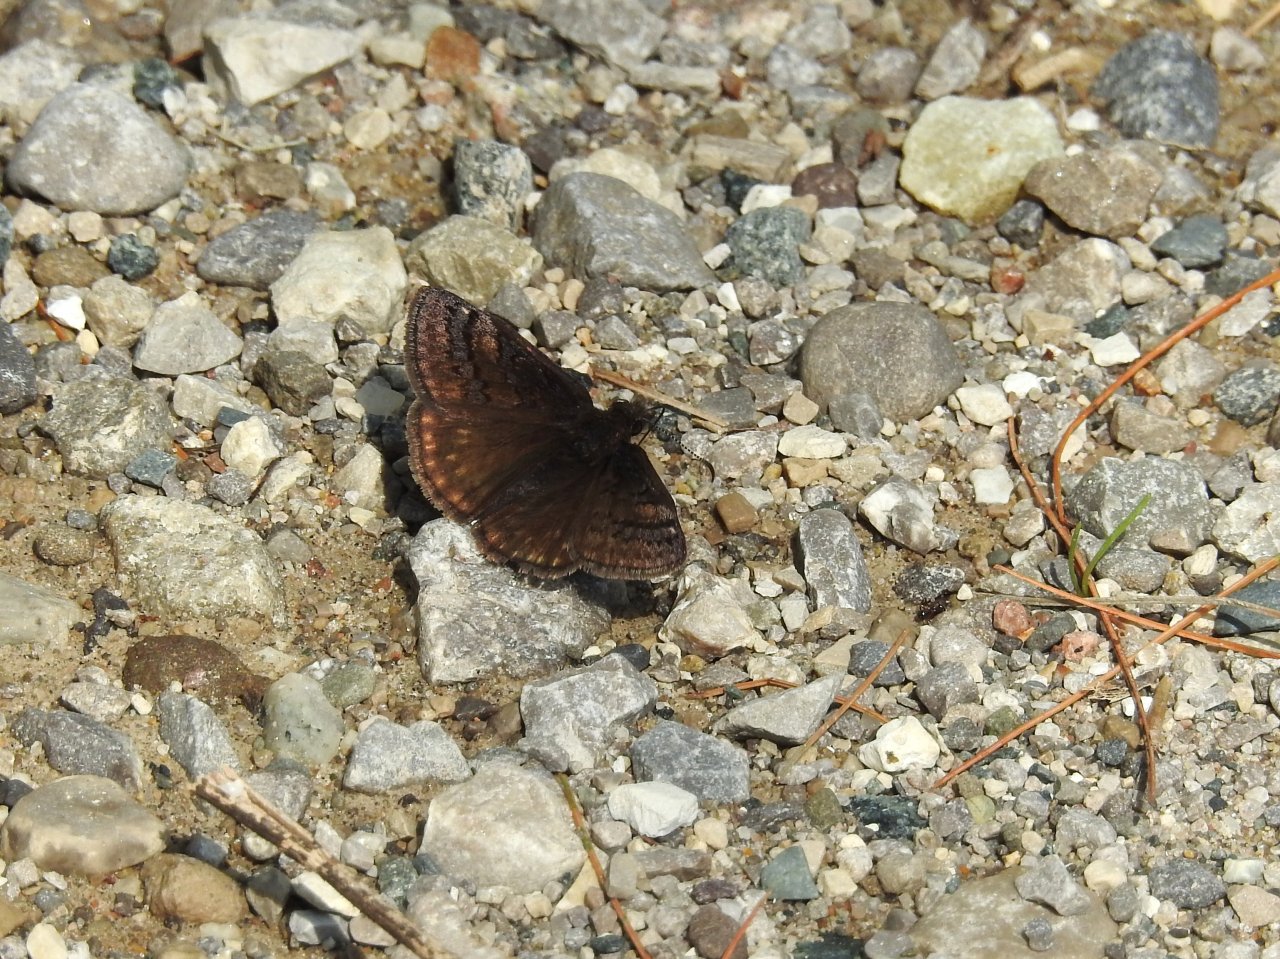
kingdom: Animalia
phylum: Arthropoda
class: Insecta
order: Lepidoptera
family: Hesperiidae
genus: Erynnis
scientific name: Erynnis brizo
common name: Sleepy Duskywing
